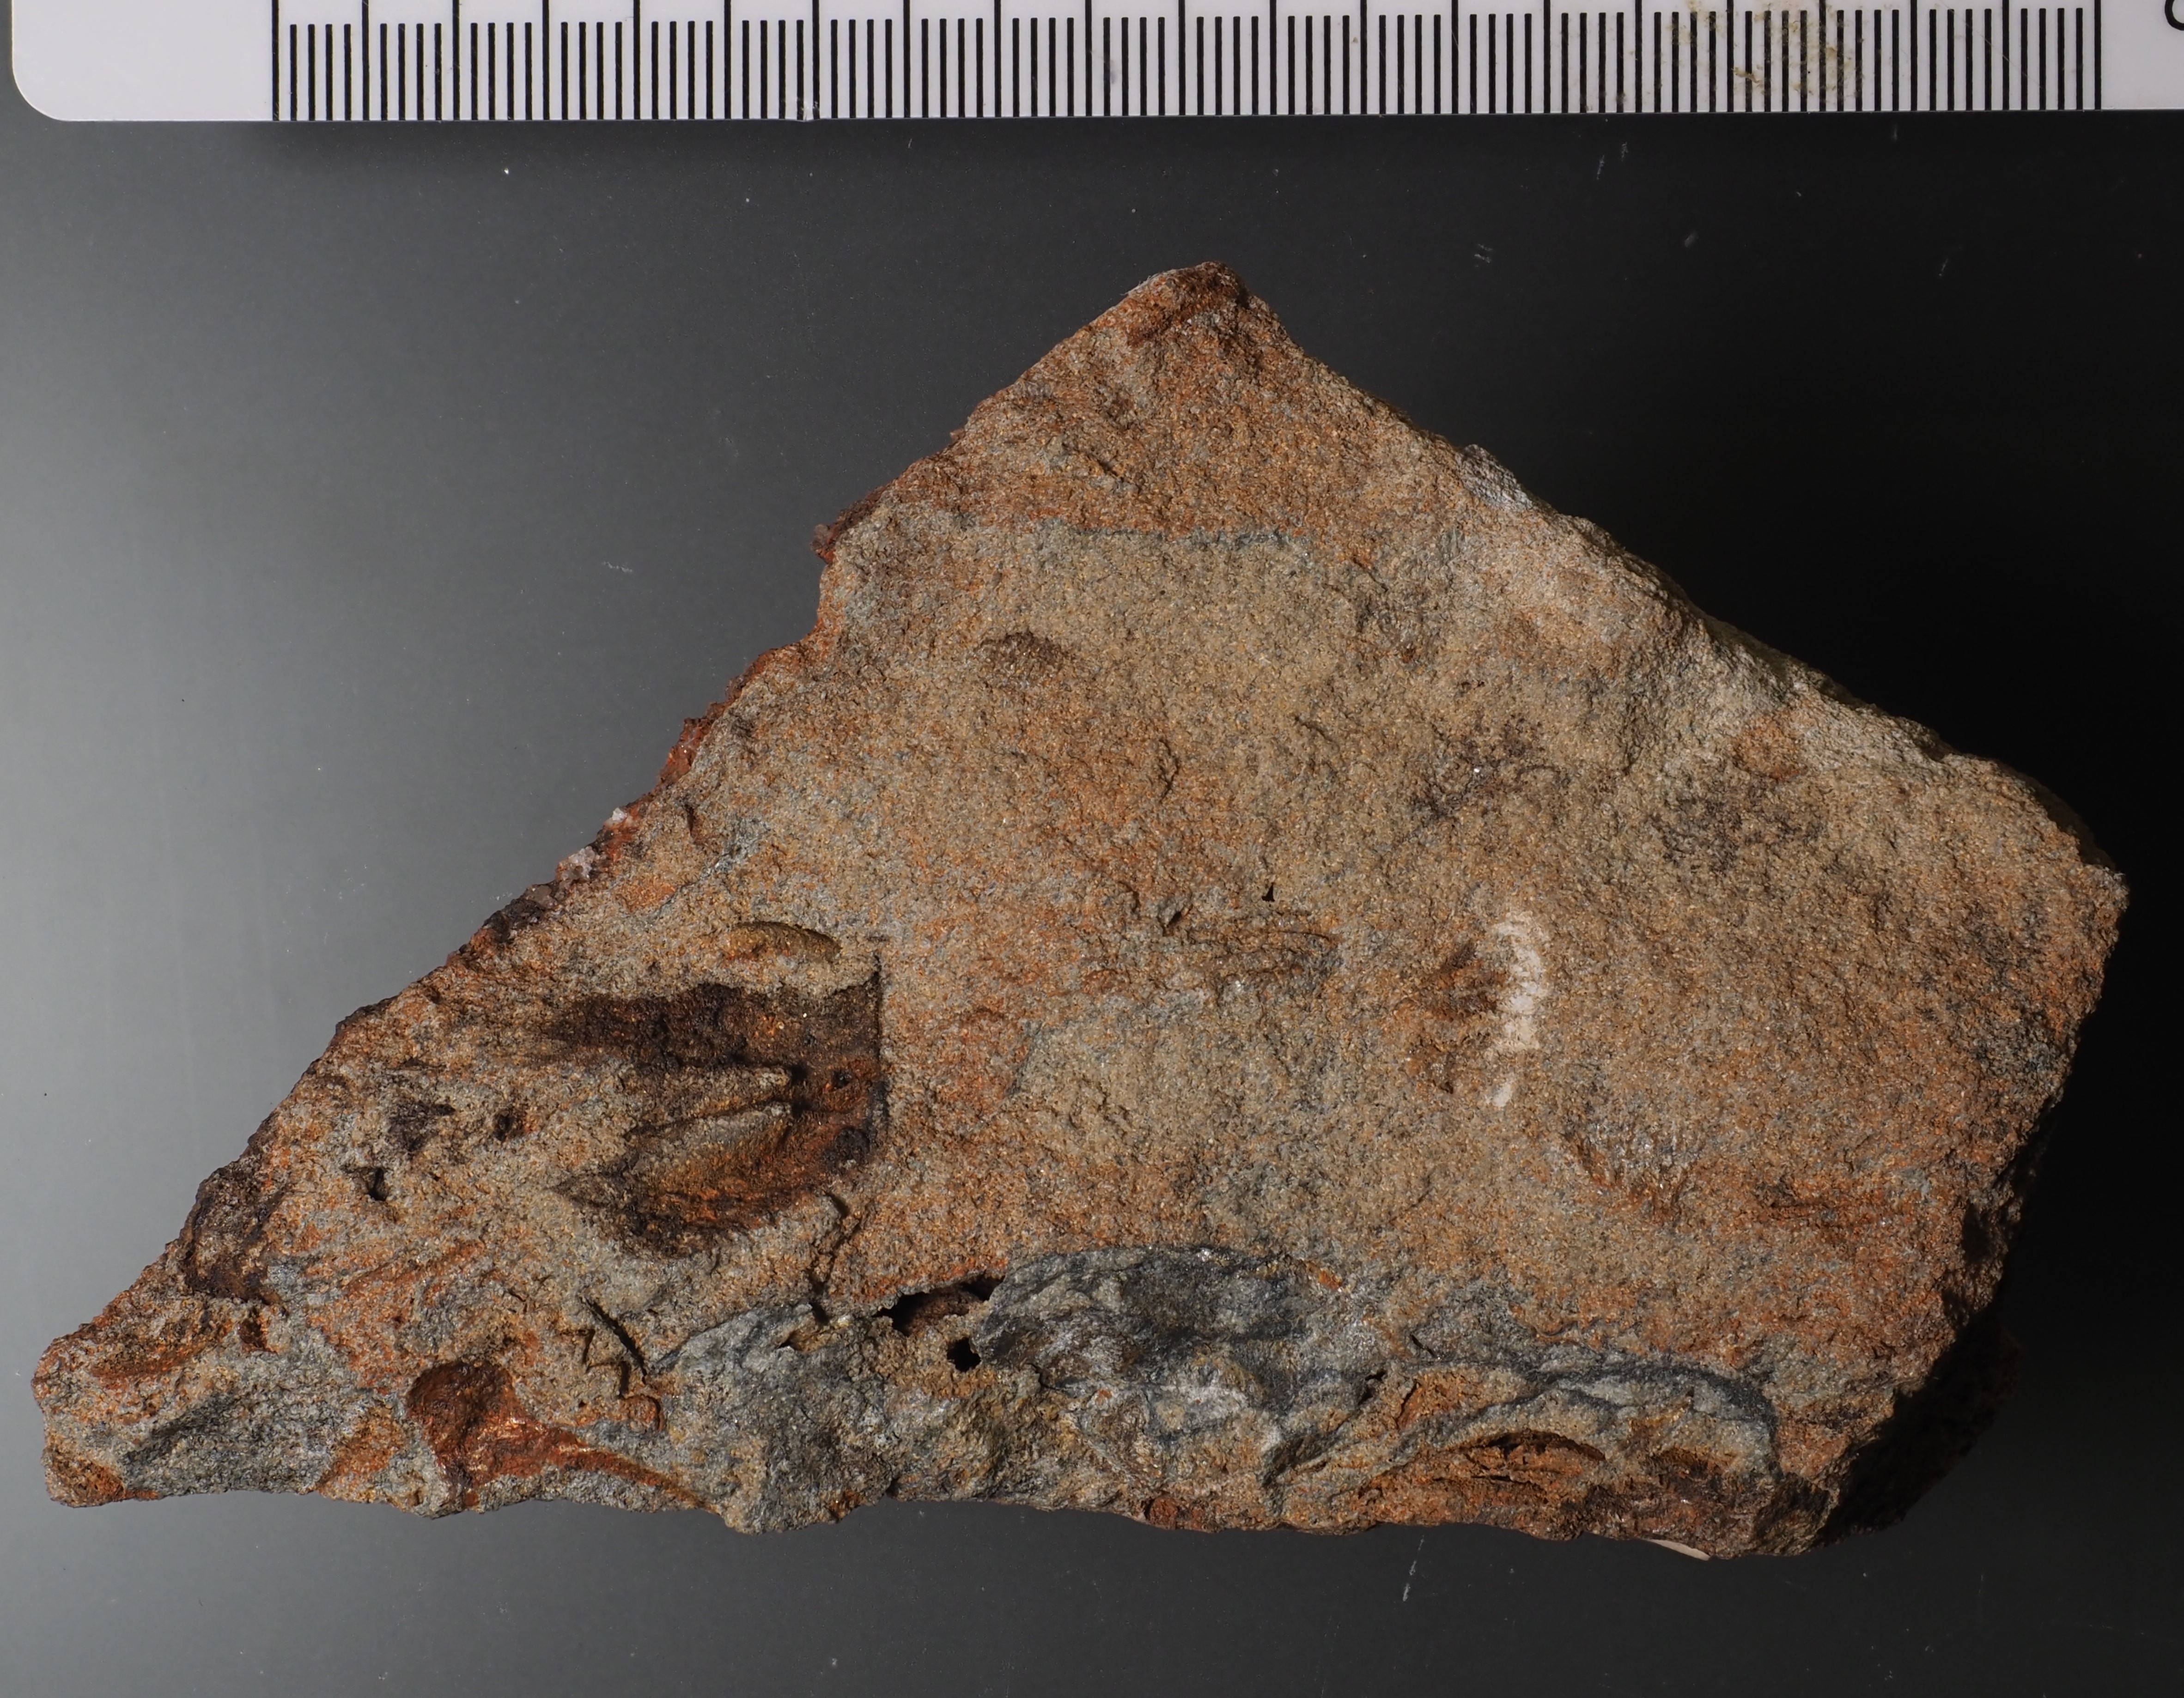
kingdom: Animalia
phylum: Brachiopoda
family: Strophomenidae
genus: Gibbodouvillina
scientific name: Gibbodouvillina
